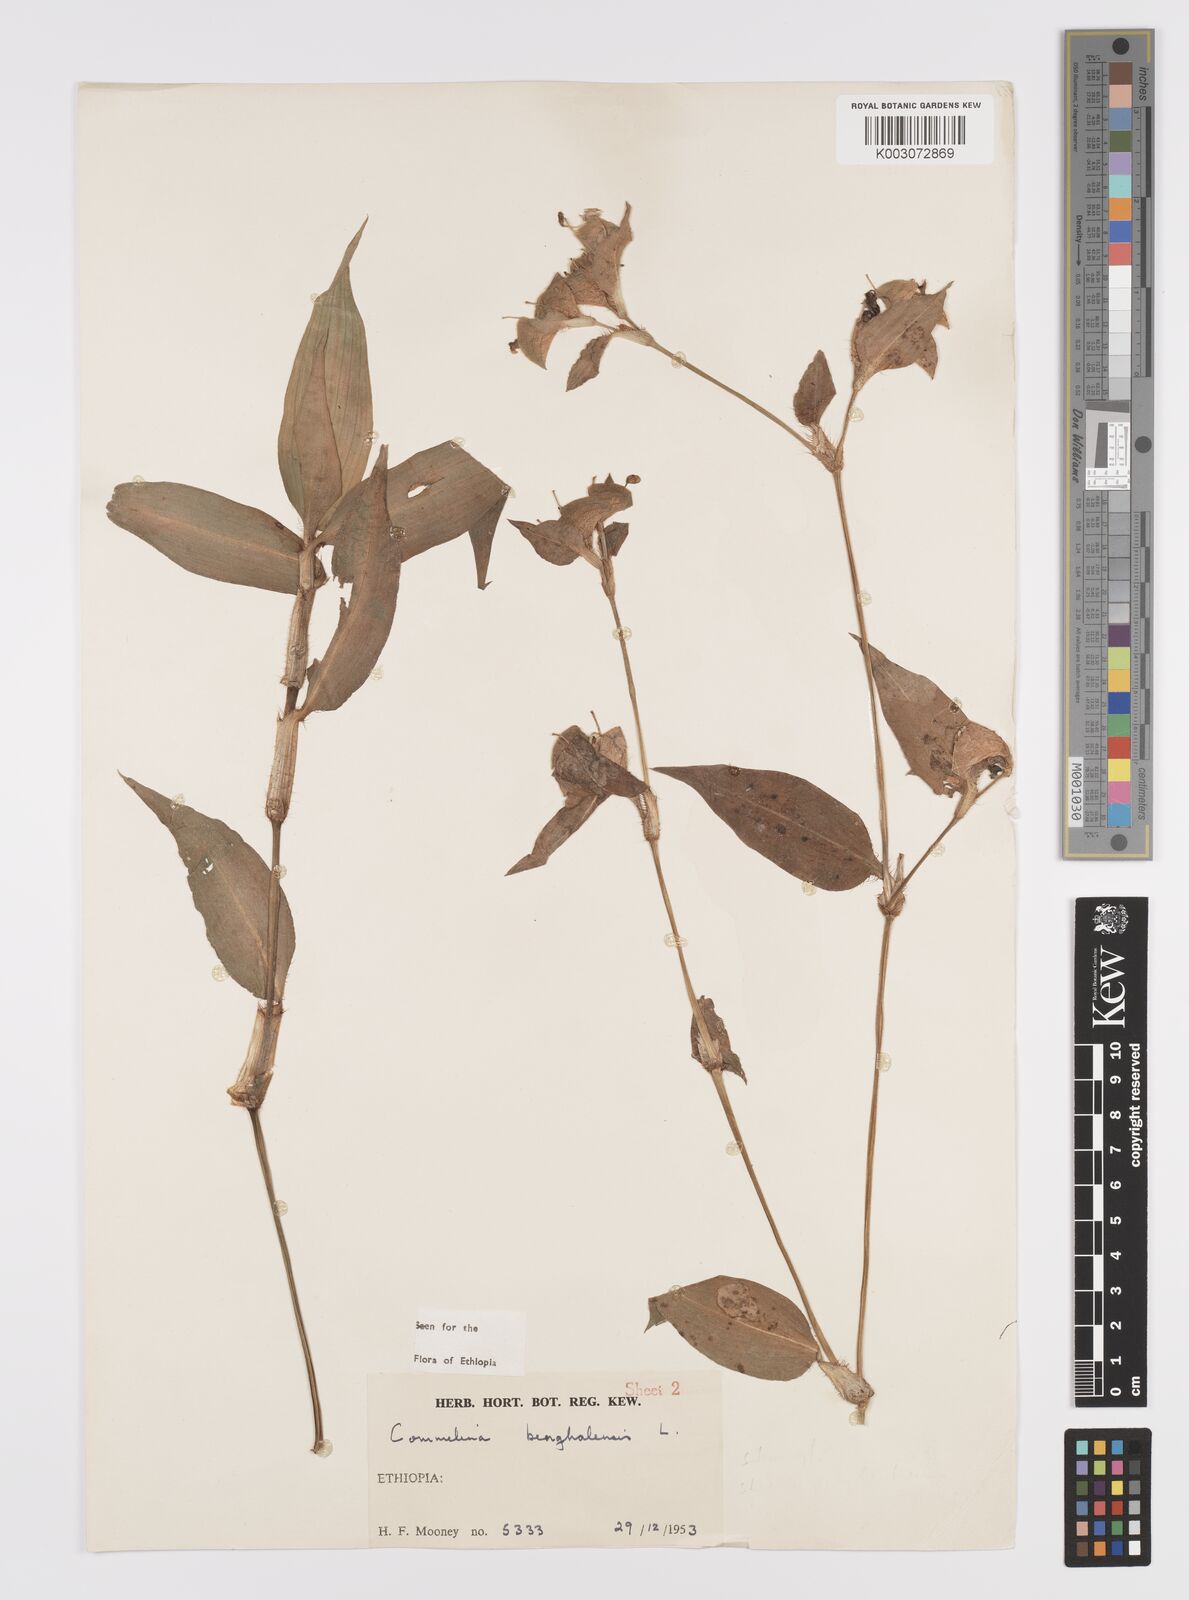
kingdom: Plantae
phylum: Tracheophyta
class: Liliopsida
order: Commelinales
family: Commelinaceae
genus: Commelina
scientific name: Commelina benghalensis
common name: Jio
